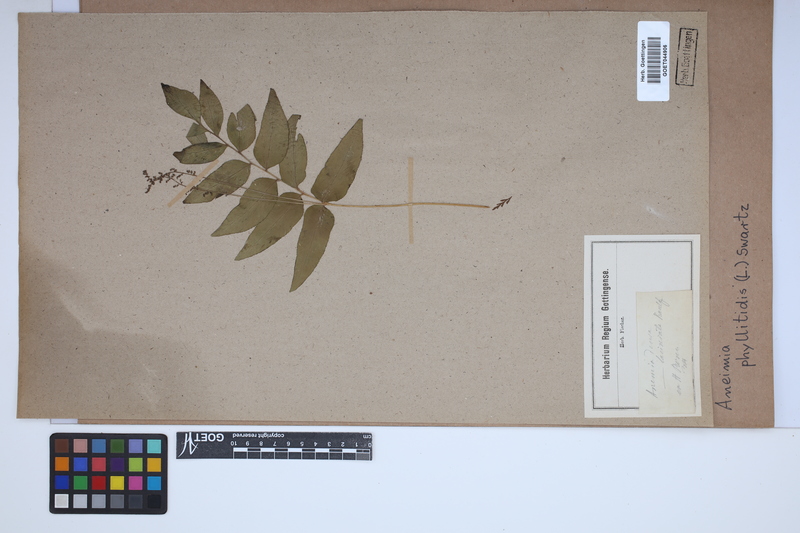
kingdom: Plantae
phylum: Tracheophyta
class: Polypodiopsida
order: Schizaeales
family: Anemiaceae
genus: Anemia
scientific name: Anemia phyllitidis
